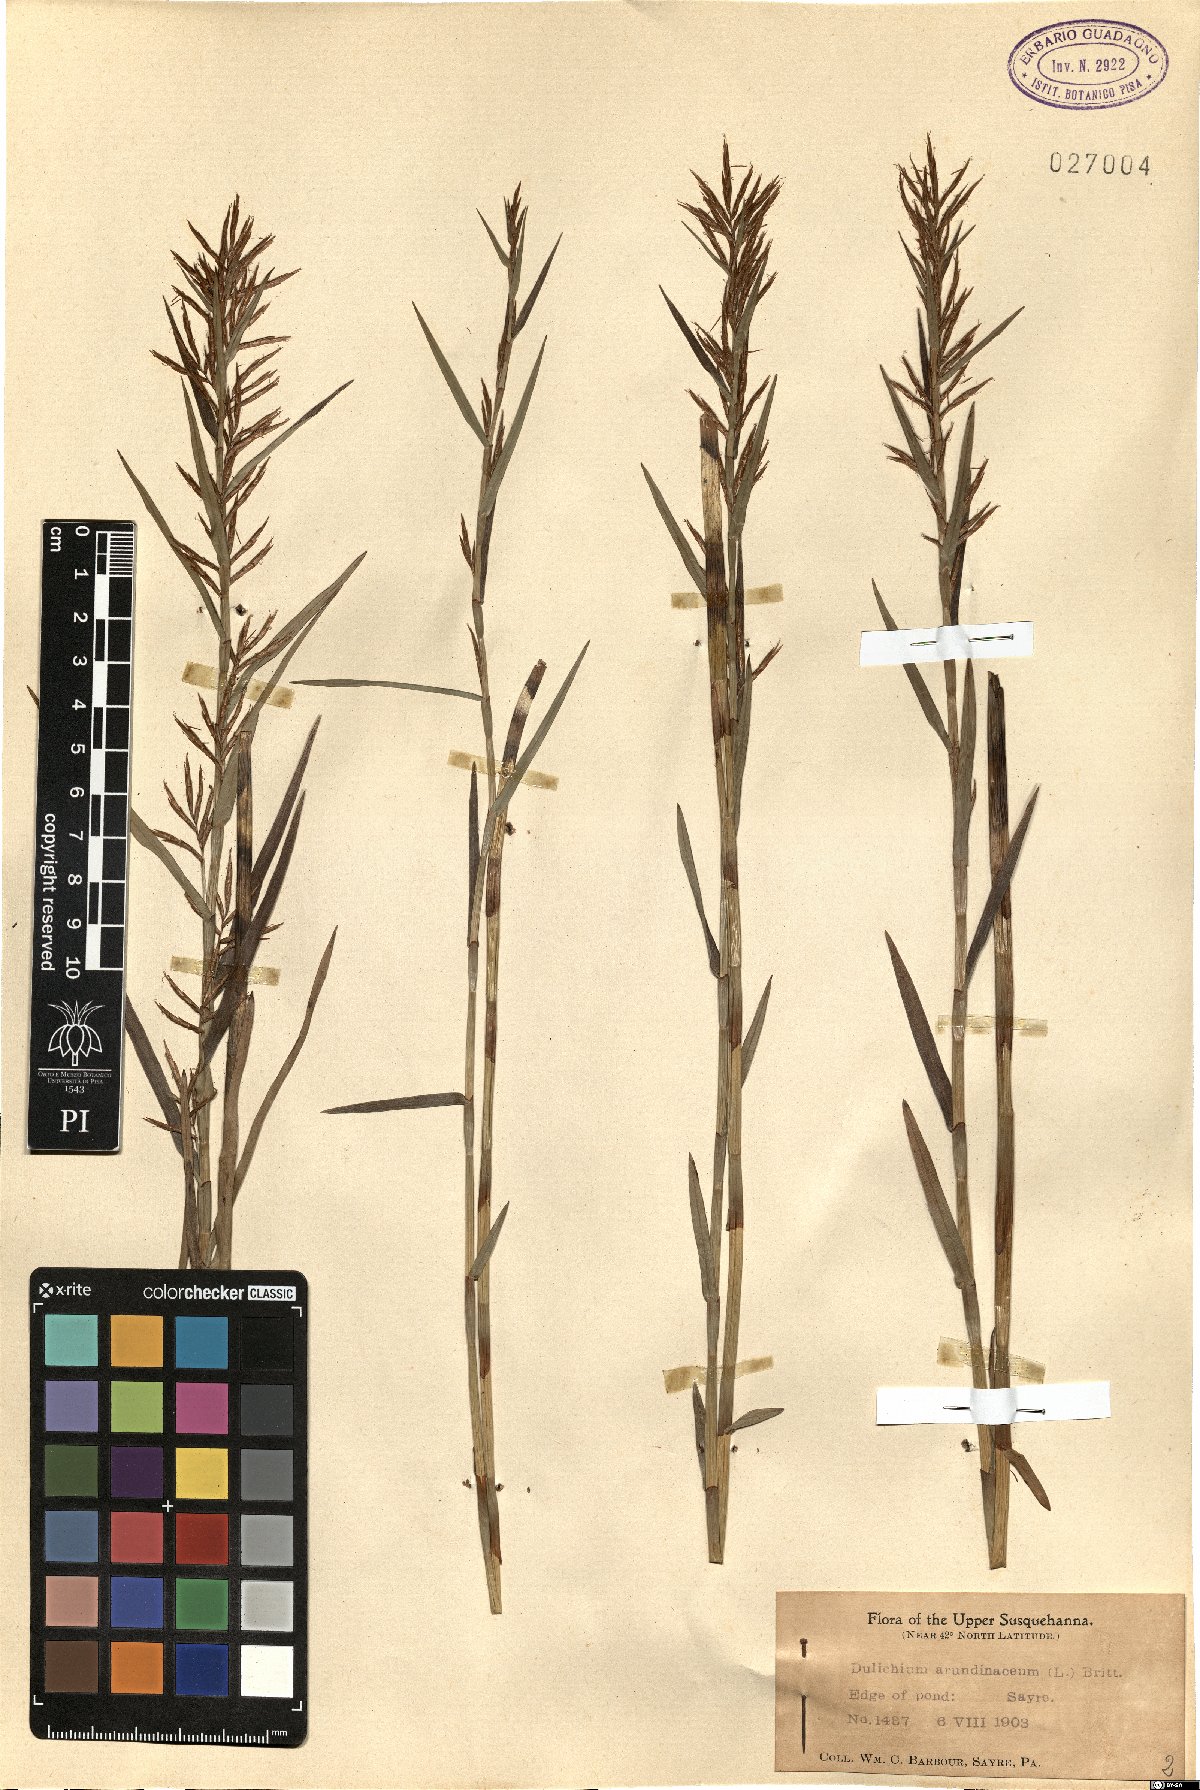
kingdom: Plantae
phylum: Tracheophyta
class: Liliopsida
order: Poales
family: Cyperaceae
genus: Dulichium
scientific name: Dulichium arundinaceum
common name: Three-way sedge
